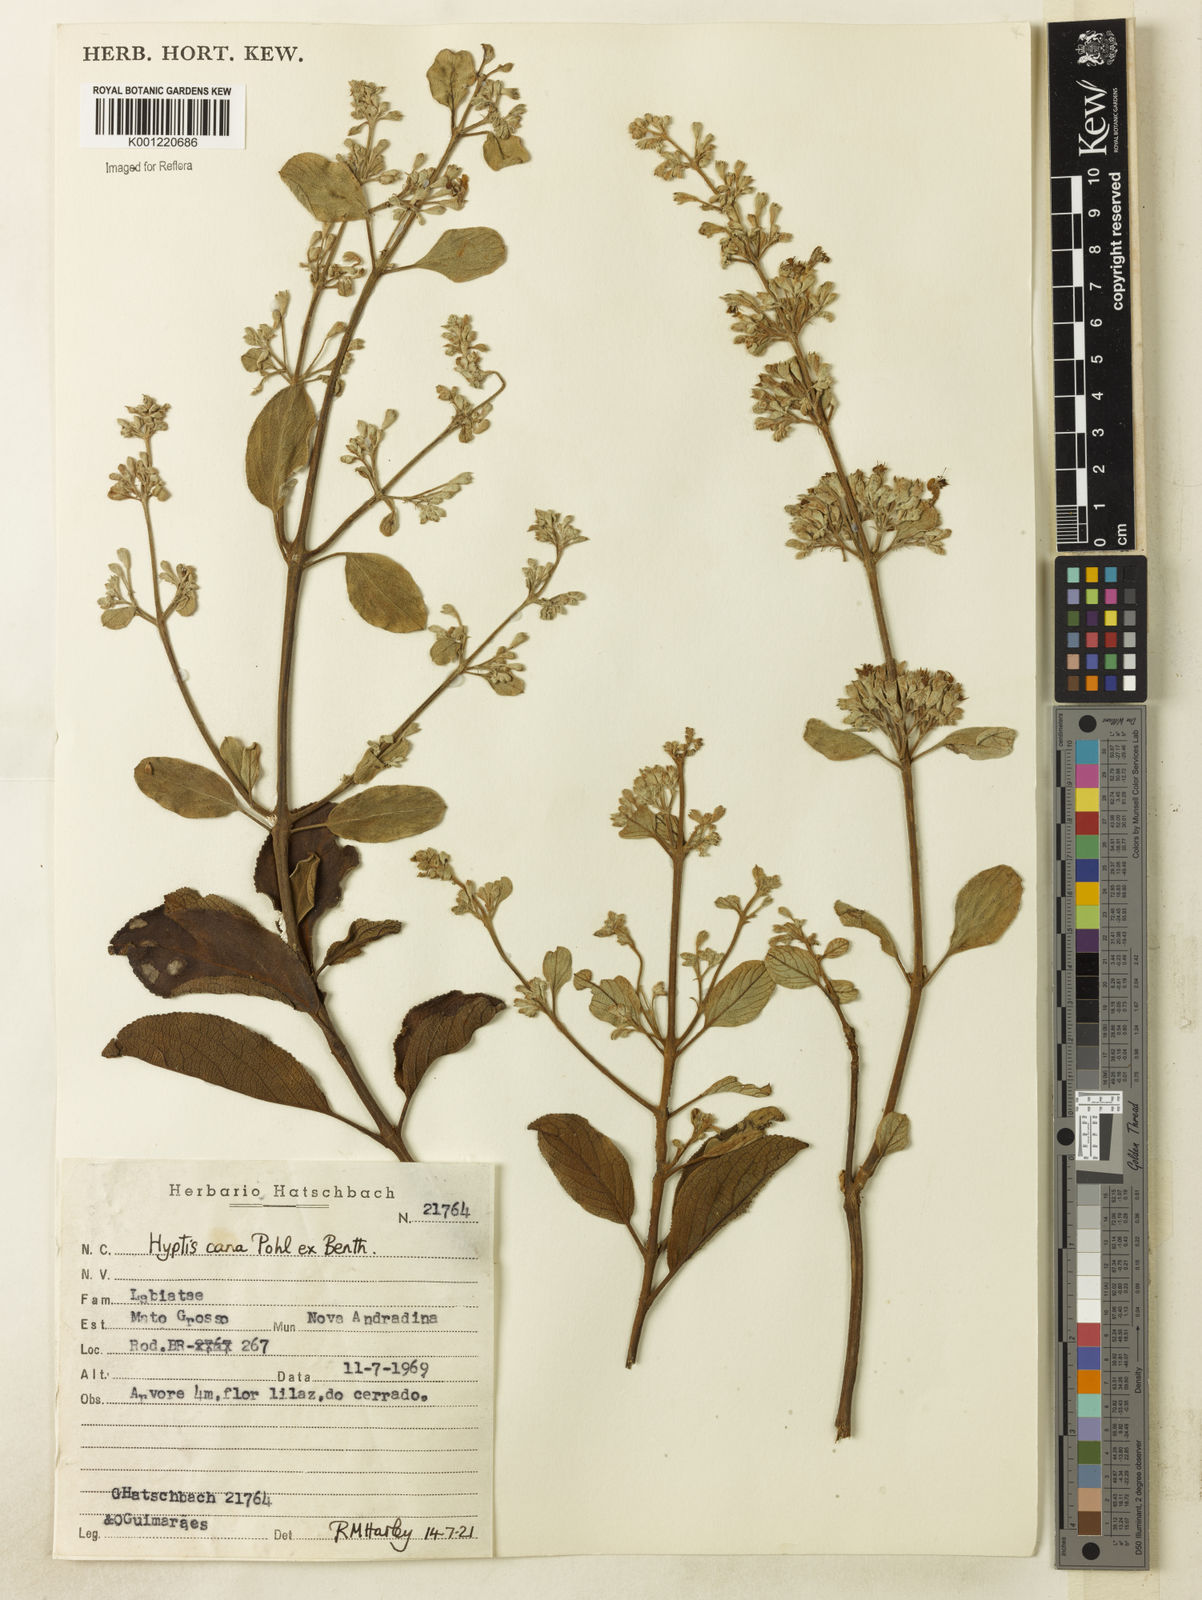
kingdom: Plantae
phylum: Tracheophyta
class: Magnoliopsida
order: Lamiales
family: Lamiaceae
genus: Hyptidendron
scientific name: Hyptidendron canum
